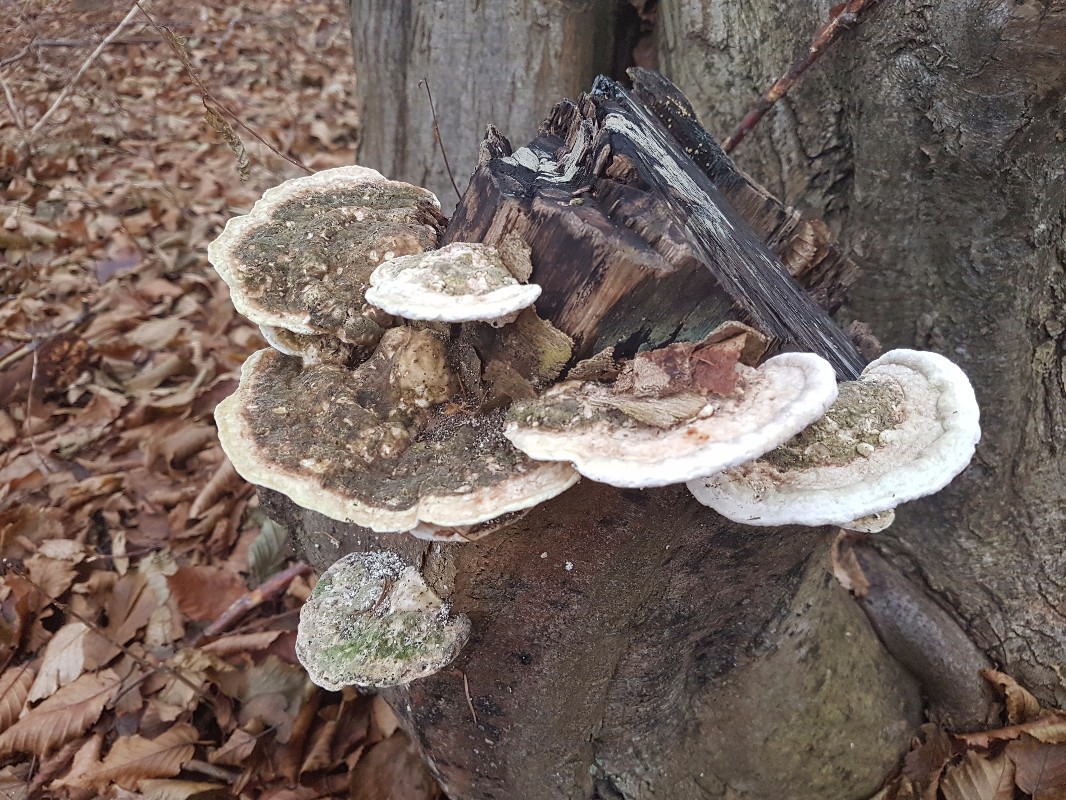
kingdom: Fungi
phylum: Basidiomycota
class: Agaricomycetes
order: Polyporales
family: Polyporaceae
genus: Trametes
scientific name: Trametes gibbosa
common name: puklet læderporesvamp
